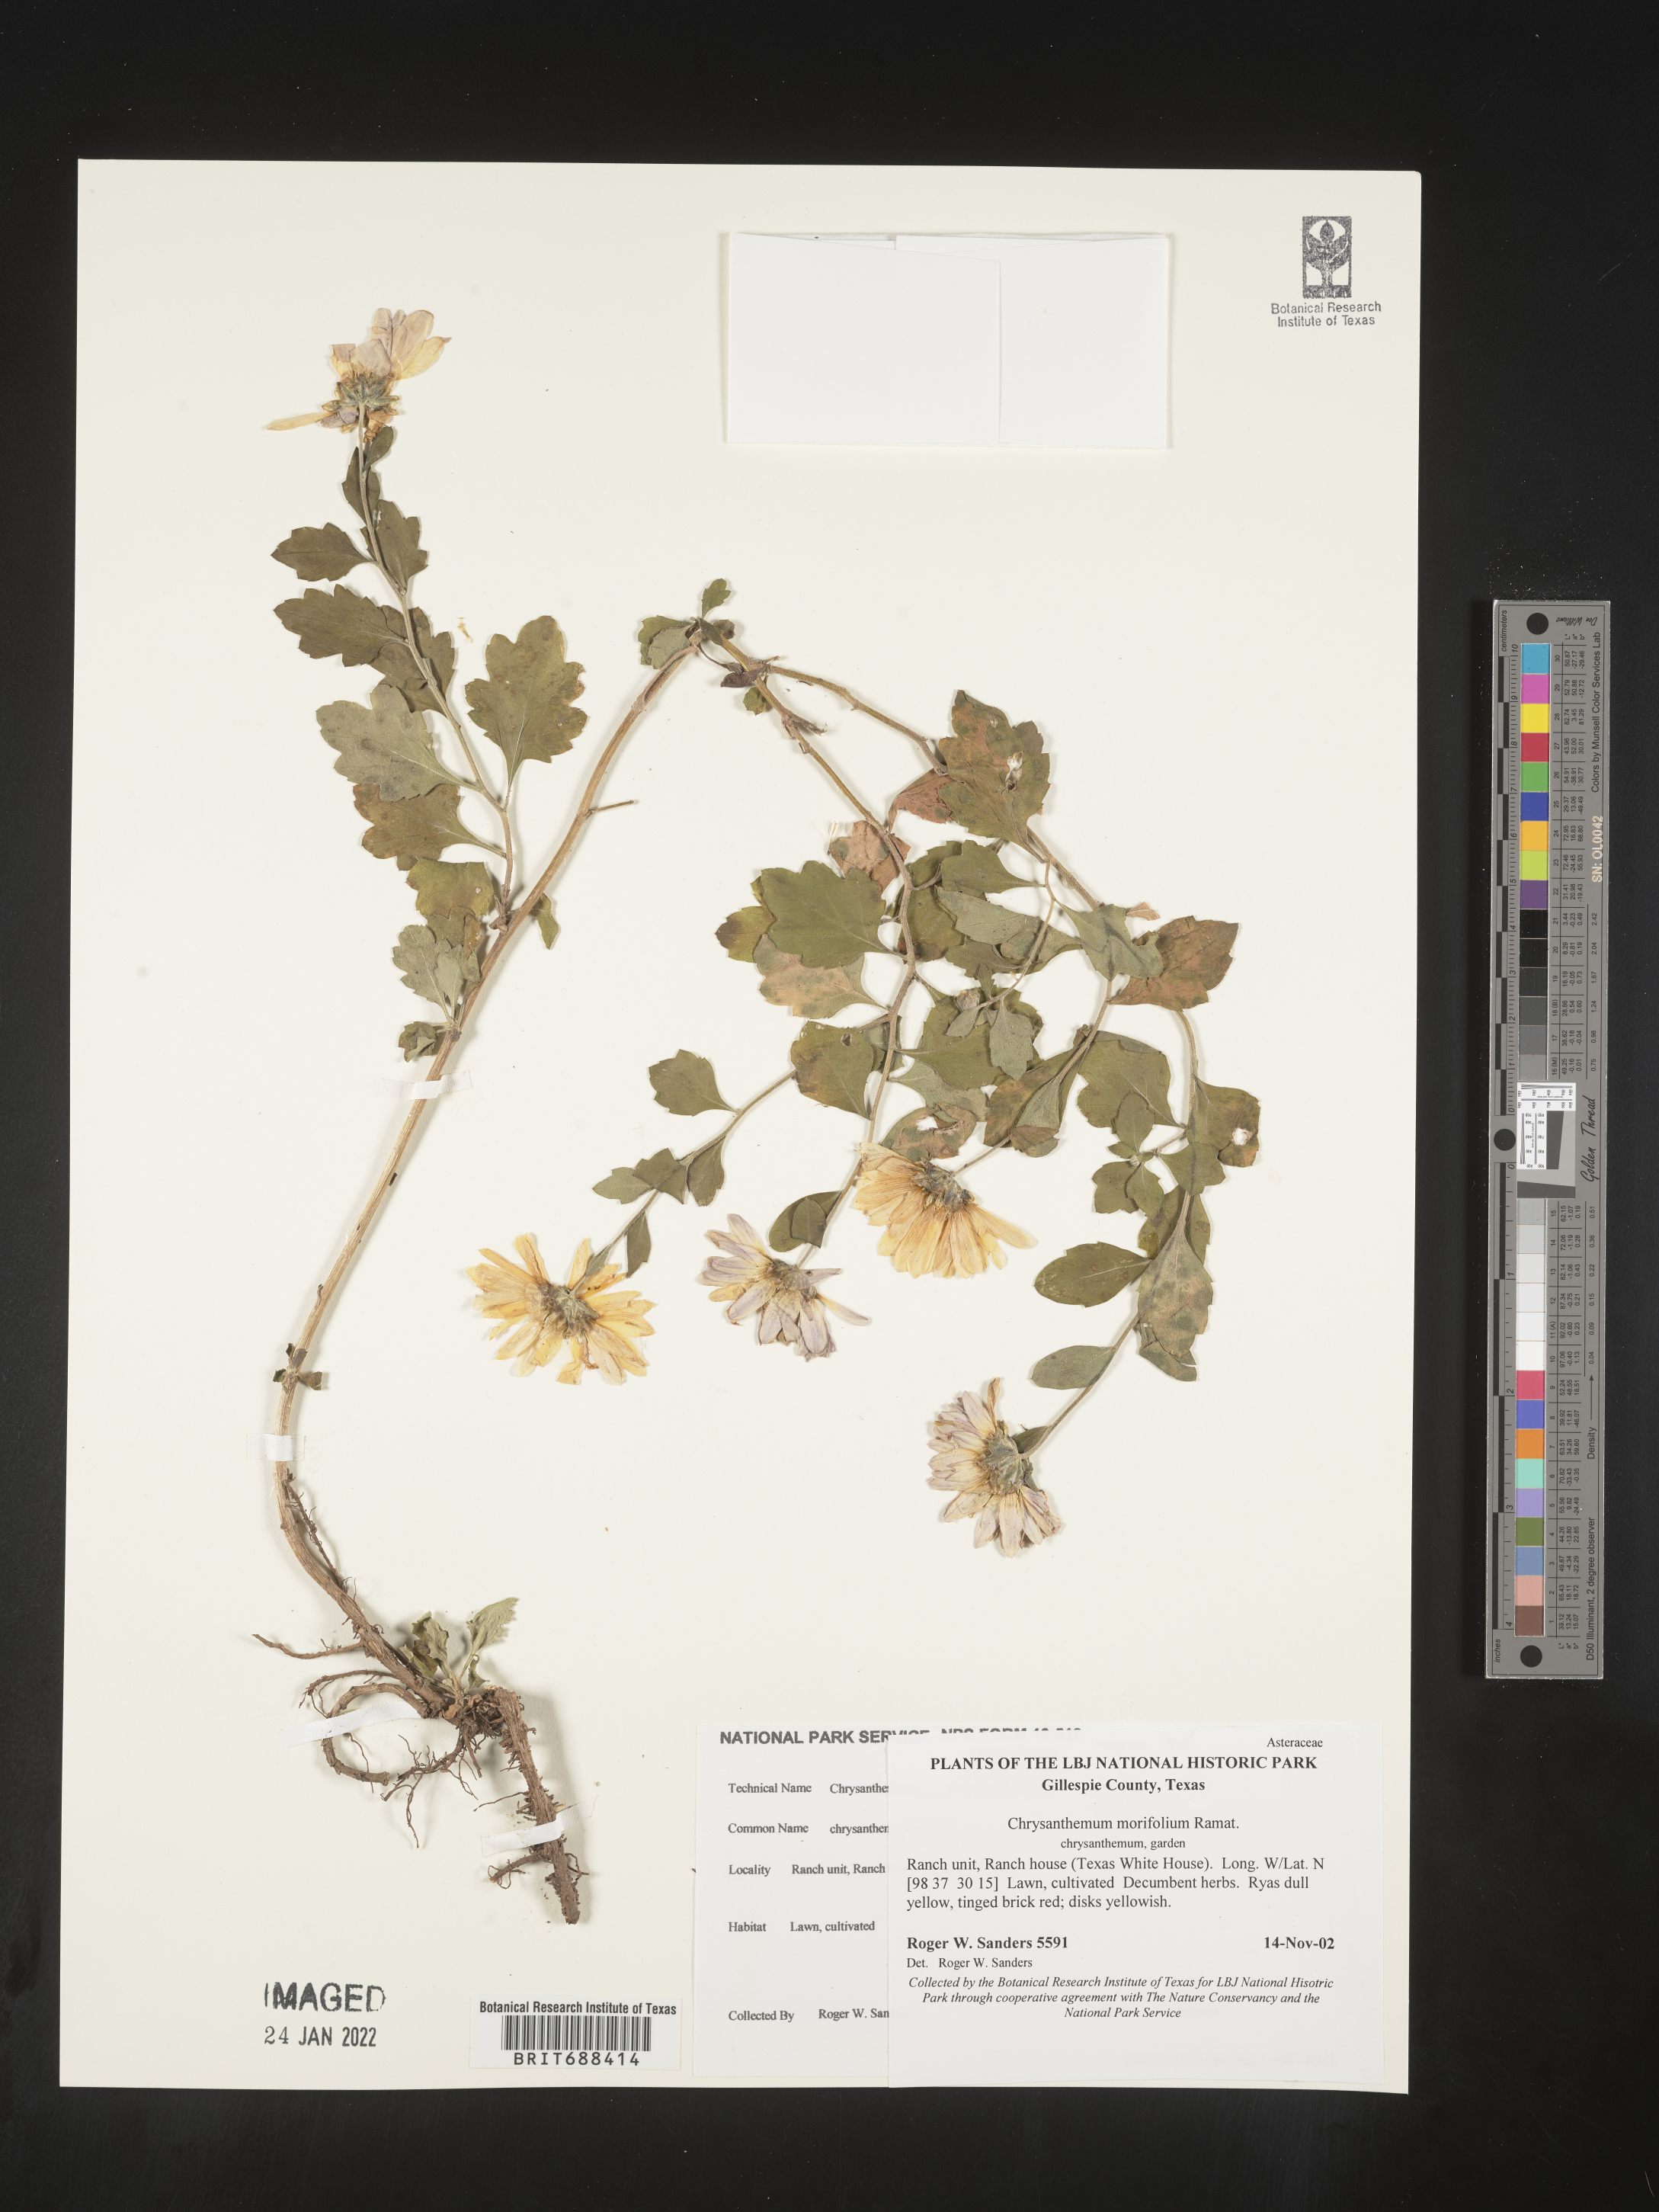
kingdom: Plantae
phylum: Tracheophyta
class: Magnoliopsida
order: Asterales
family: Asteraceae
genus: Chrysanthemum
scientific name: Chrysanthemum
